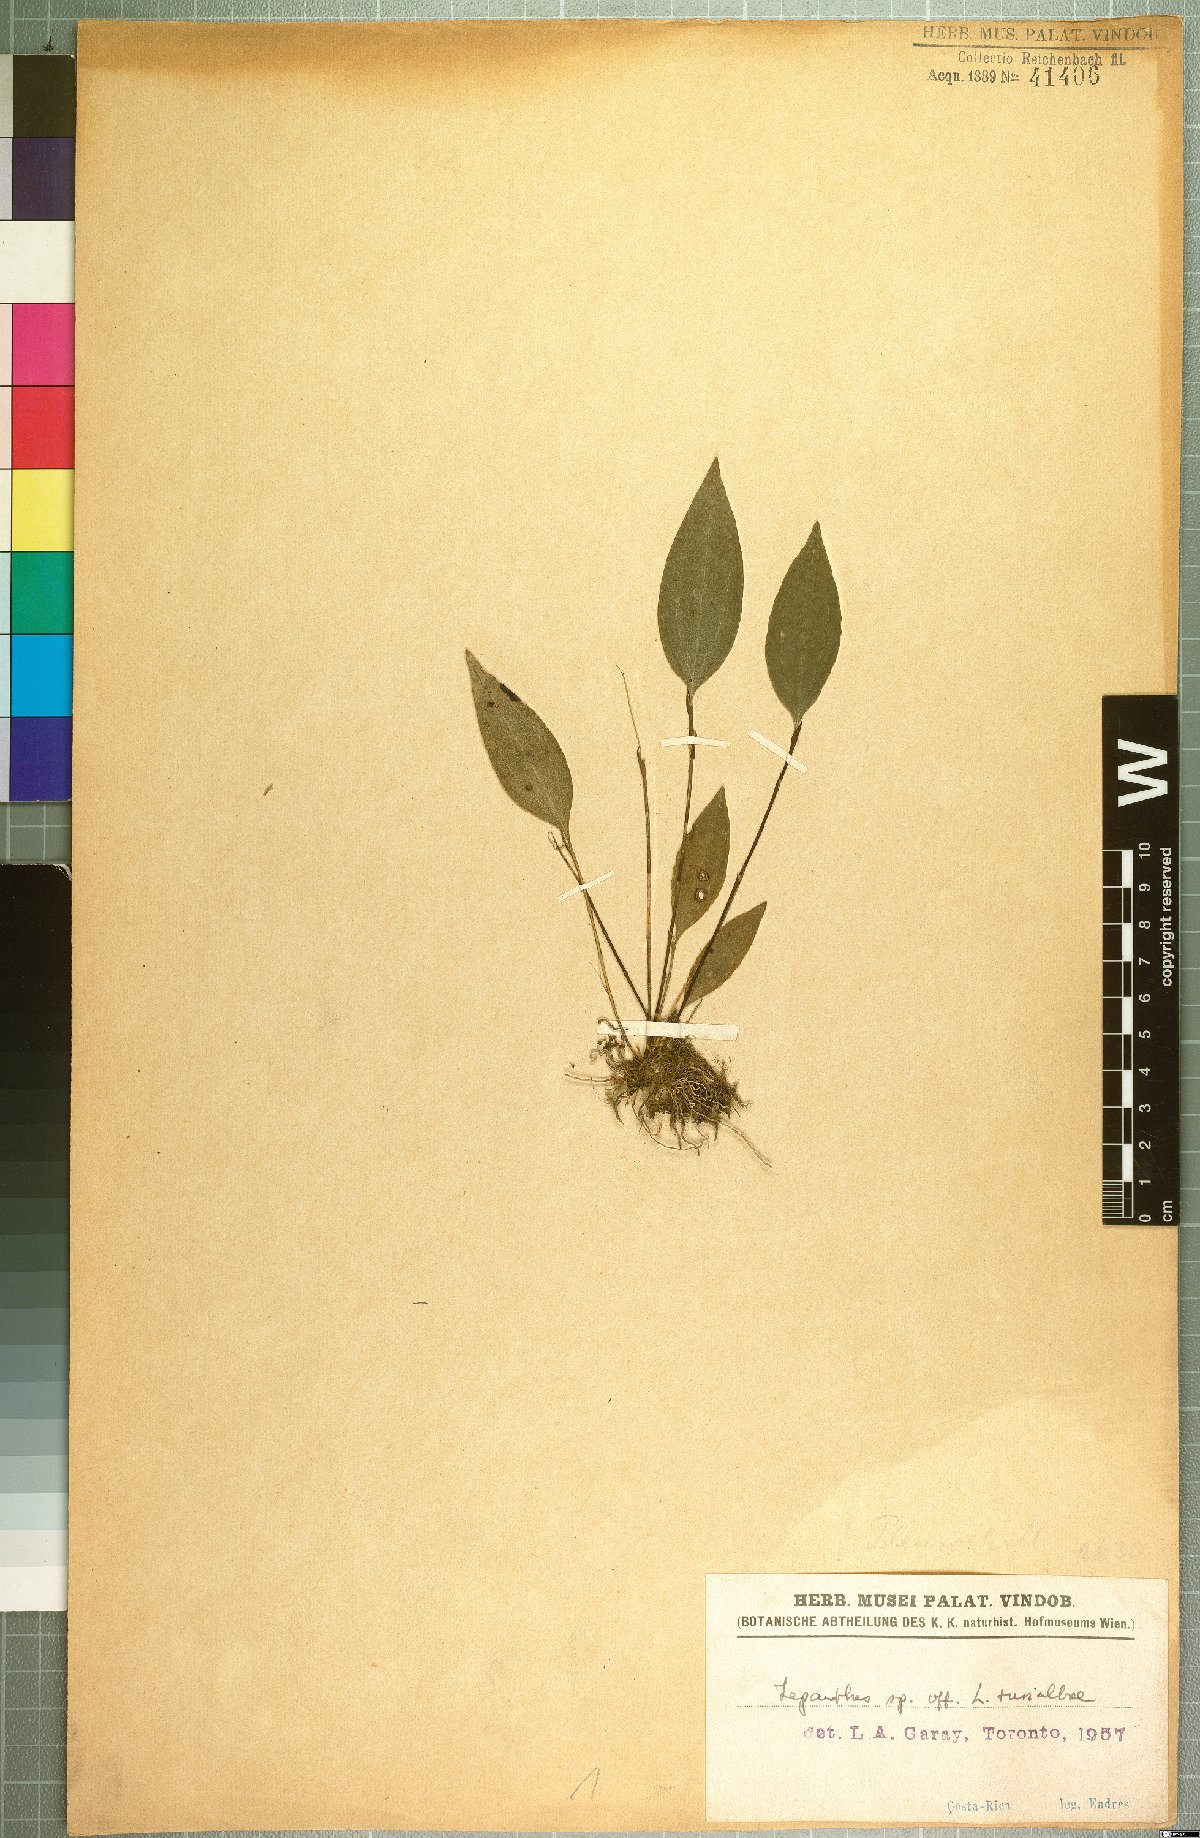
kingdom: Plantae
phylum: Tracheophyta
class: Liliopsida
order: Asparagales
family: Orchidaceae
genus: Lepanthes
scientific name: Lepanthes turialvae
